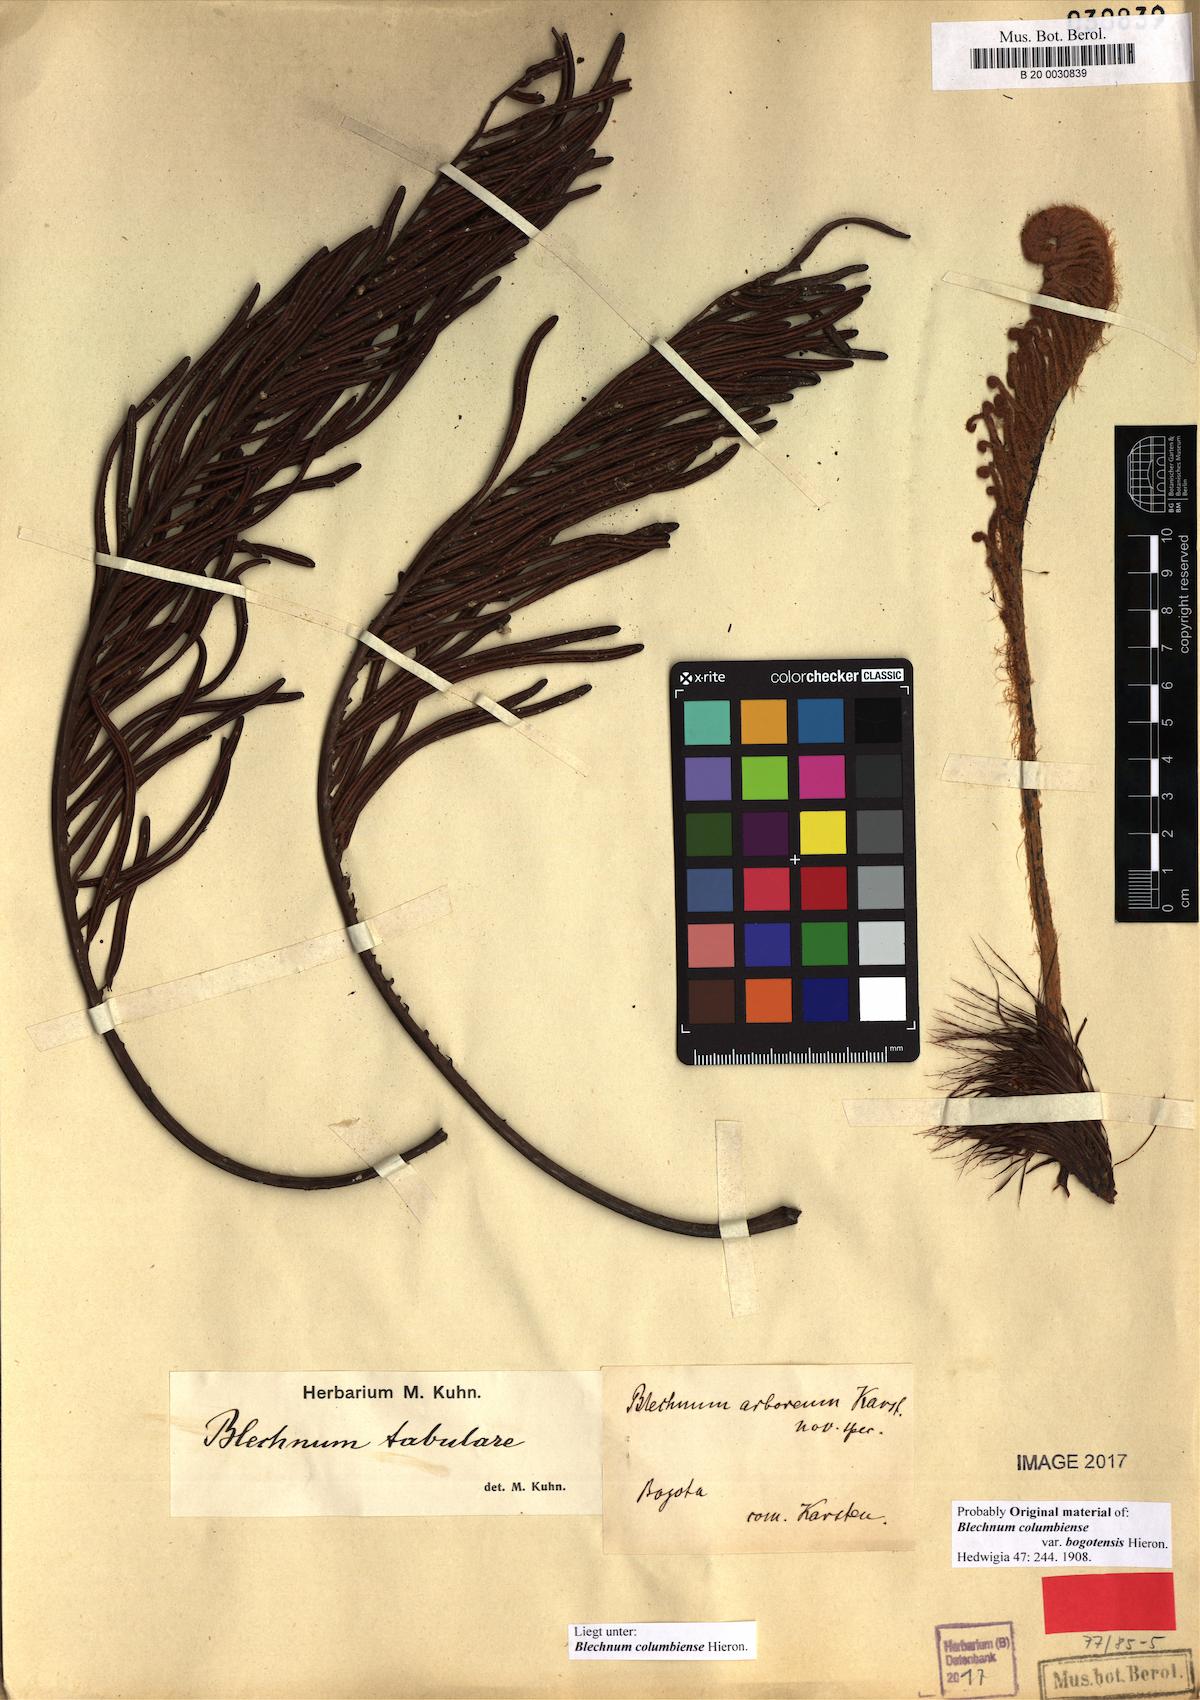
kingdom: Plantae
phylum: Tracheophyta
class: Polypodiopsida
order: Polypodiales
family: Blechnaceae
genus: Lomariocycas
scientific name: Lomariocycas columbiensis
